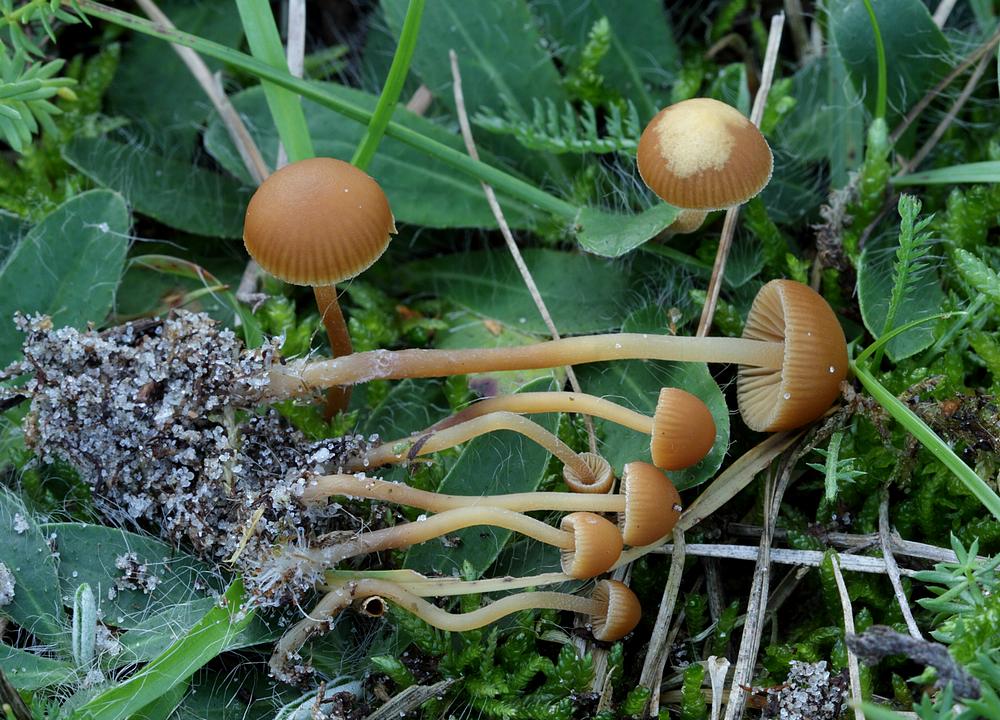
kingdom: Fungi
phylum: Basidiomycota
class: Agaricomycetes
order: Agaricales
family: Hymenogastraceae
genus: Galerina
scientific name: Galerina vittiformis
